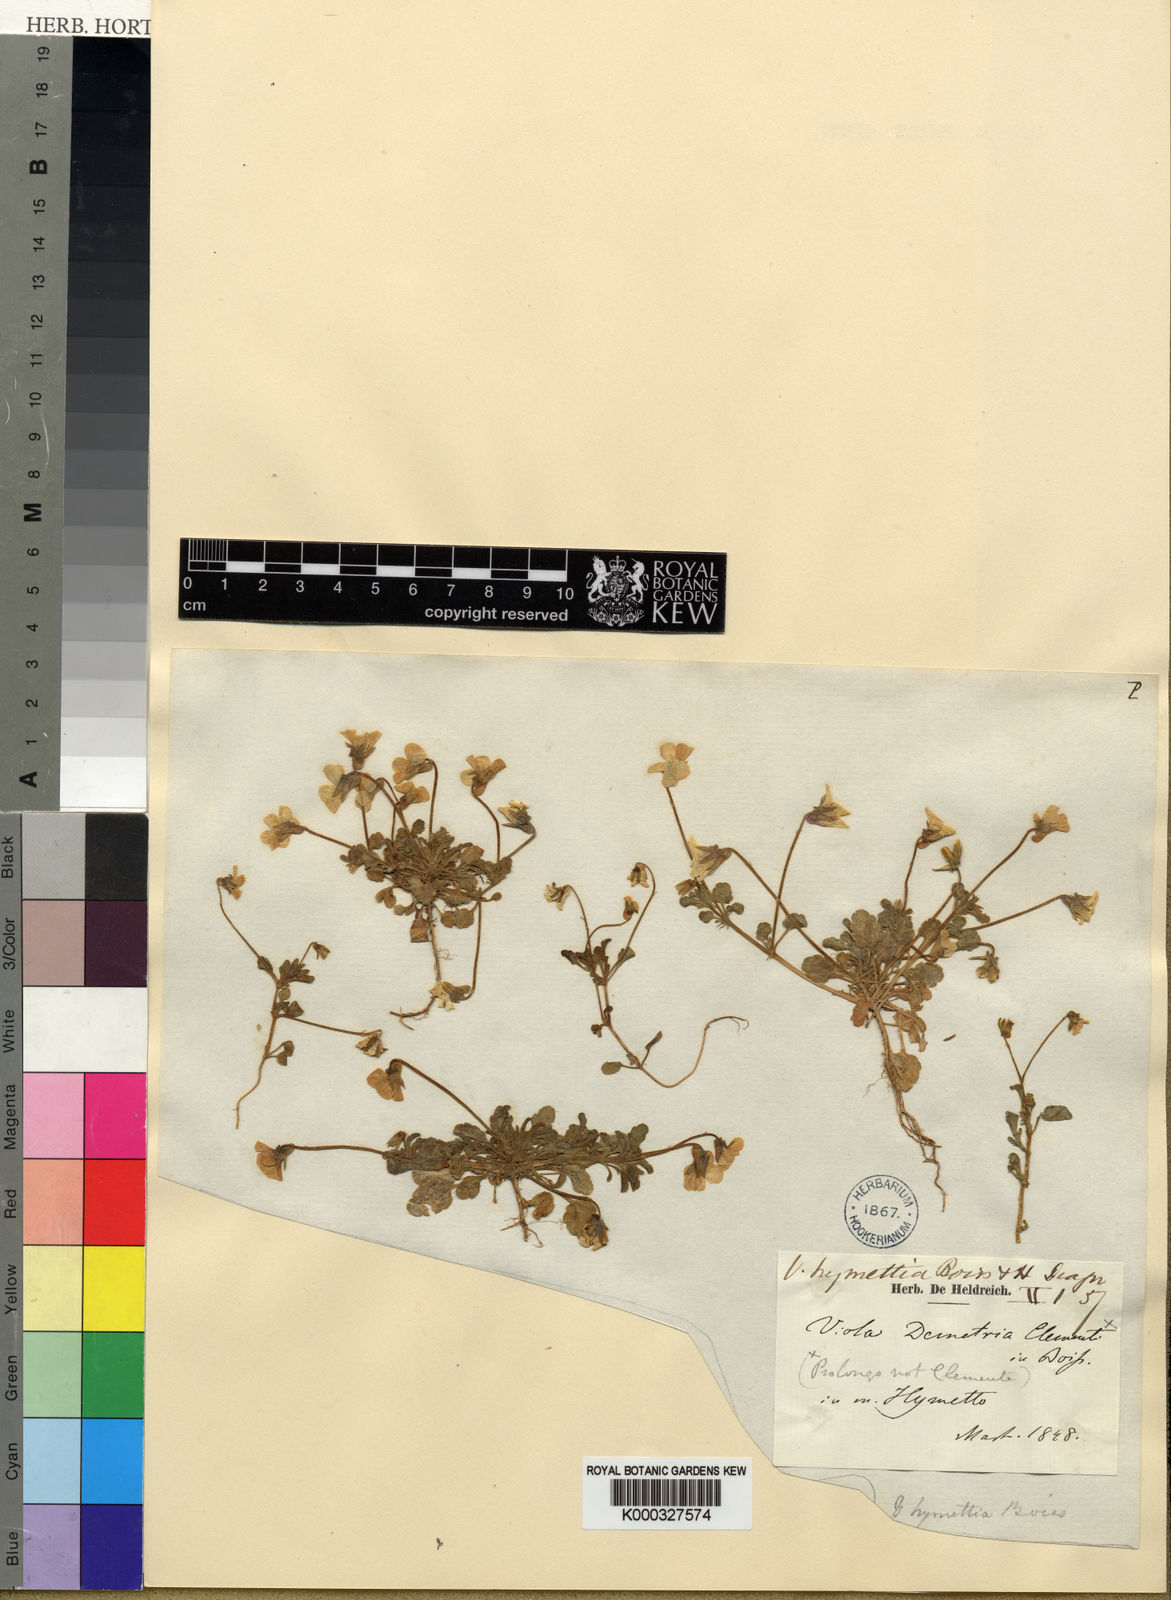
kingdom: Plantae
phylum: Tracheophyta
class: Magnoliopsida
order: Malpighiales
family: Violaceae
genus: Viola
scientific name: Viola hymettia
